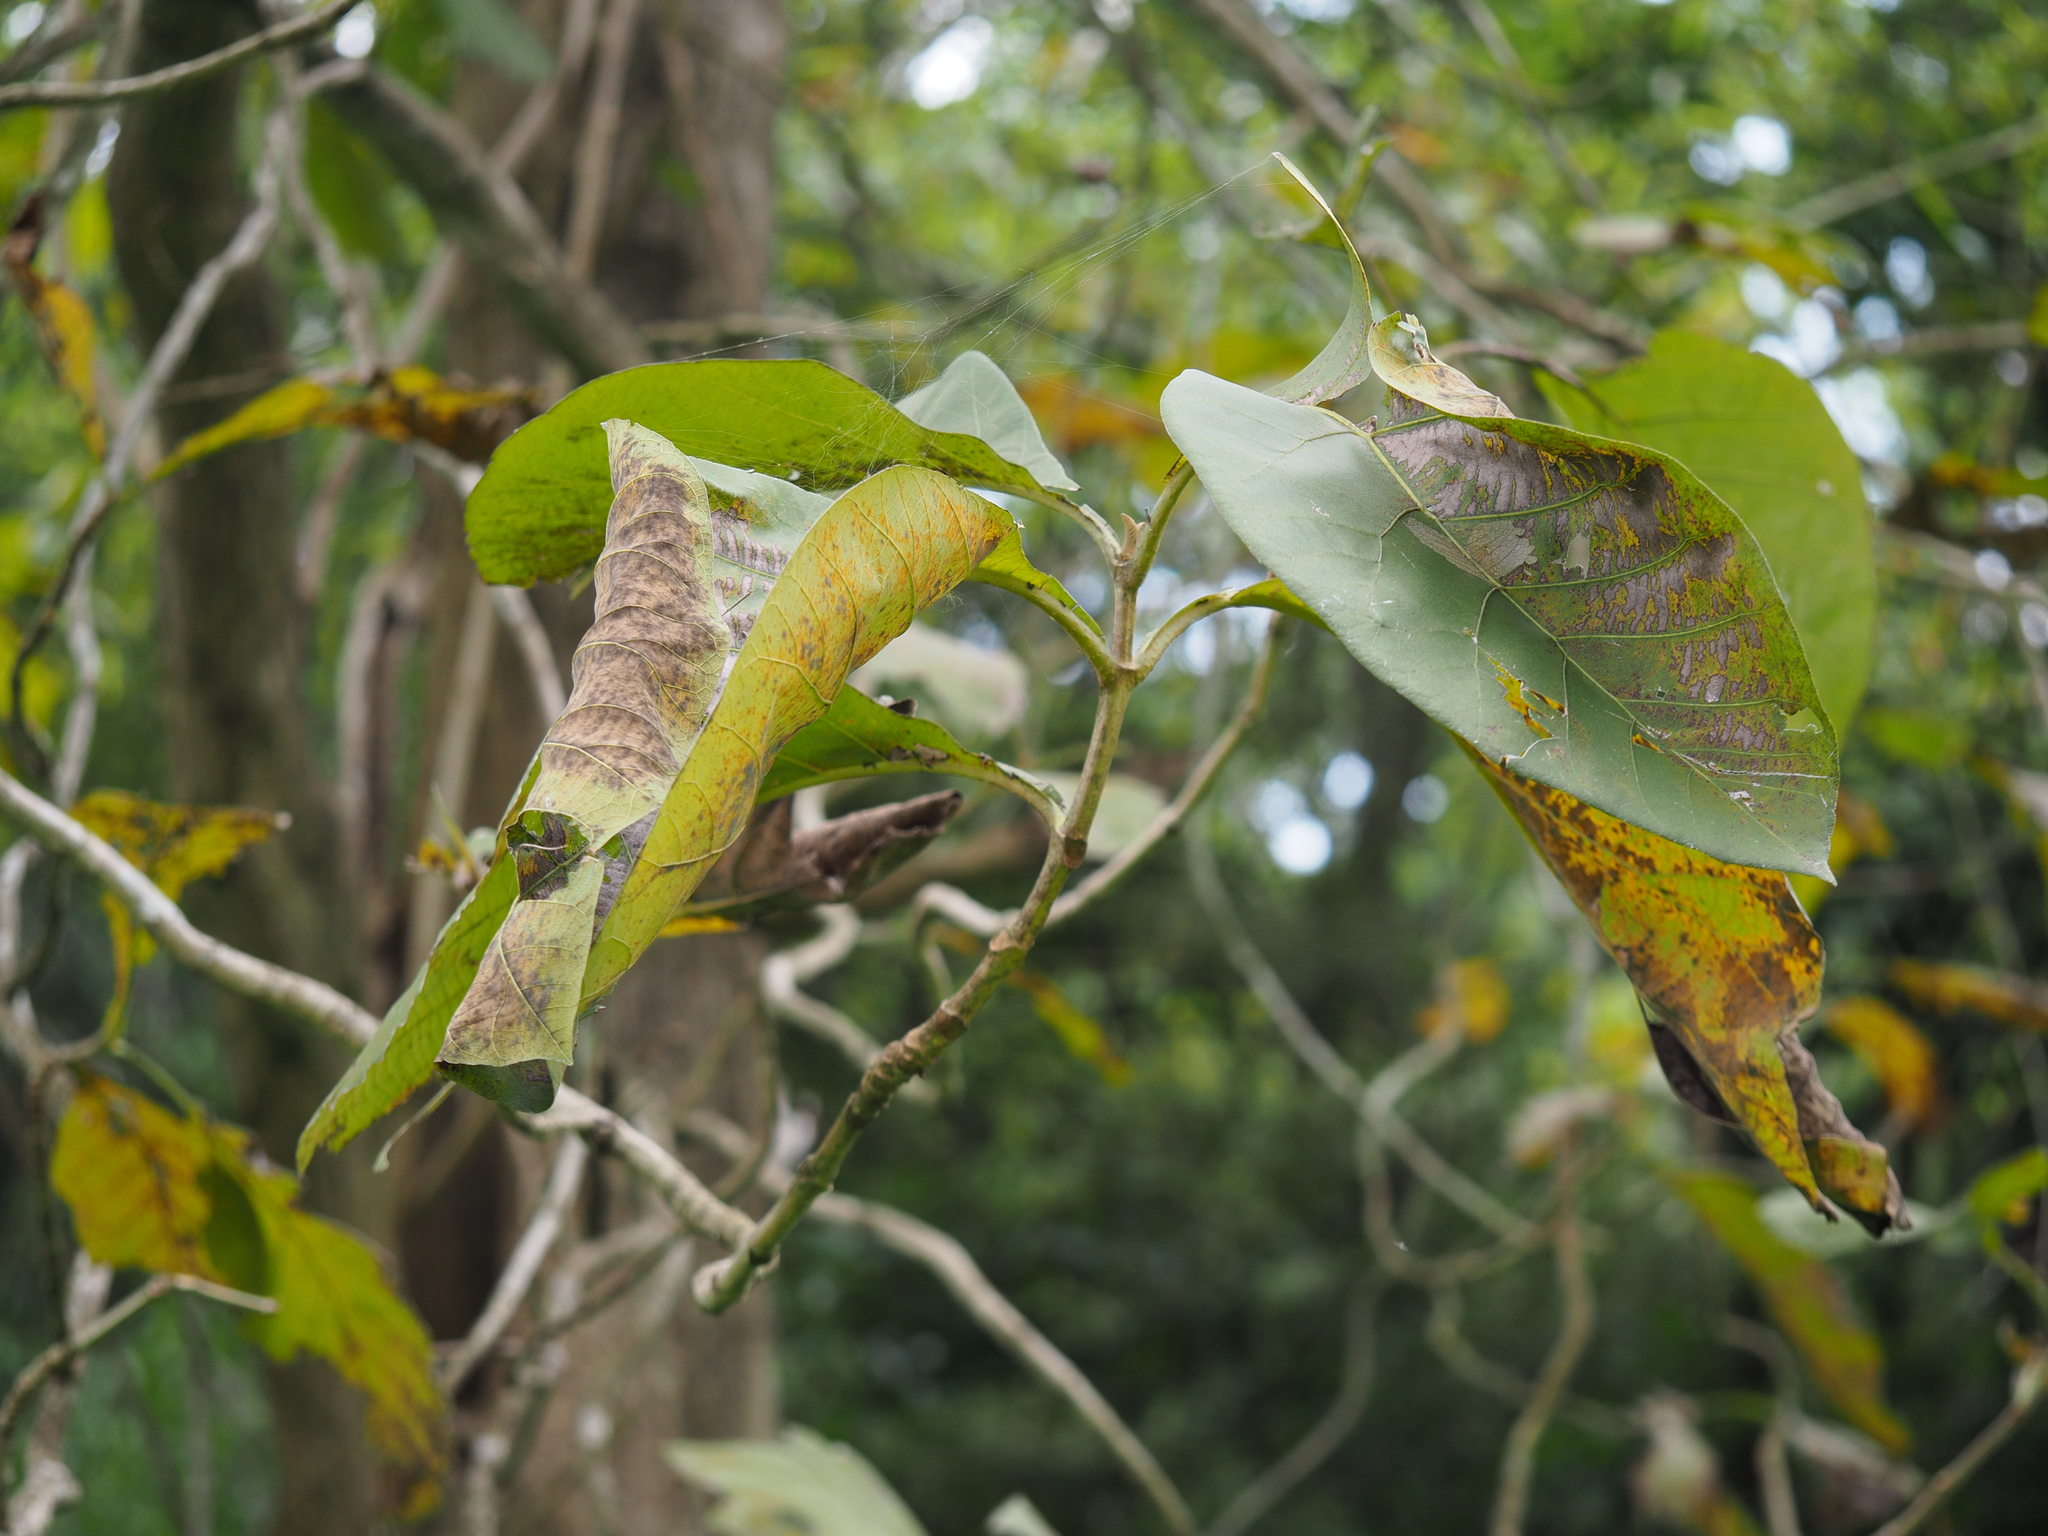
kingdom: Plantae
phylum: Tracheophyta
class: Magnoliopsida
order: Lamiales
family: Lamiaceae
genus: Tectona
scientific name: Tectona grandis
